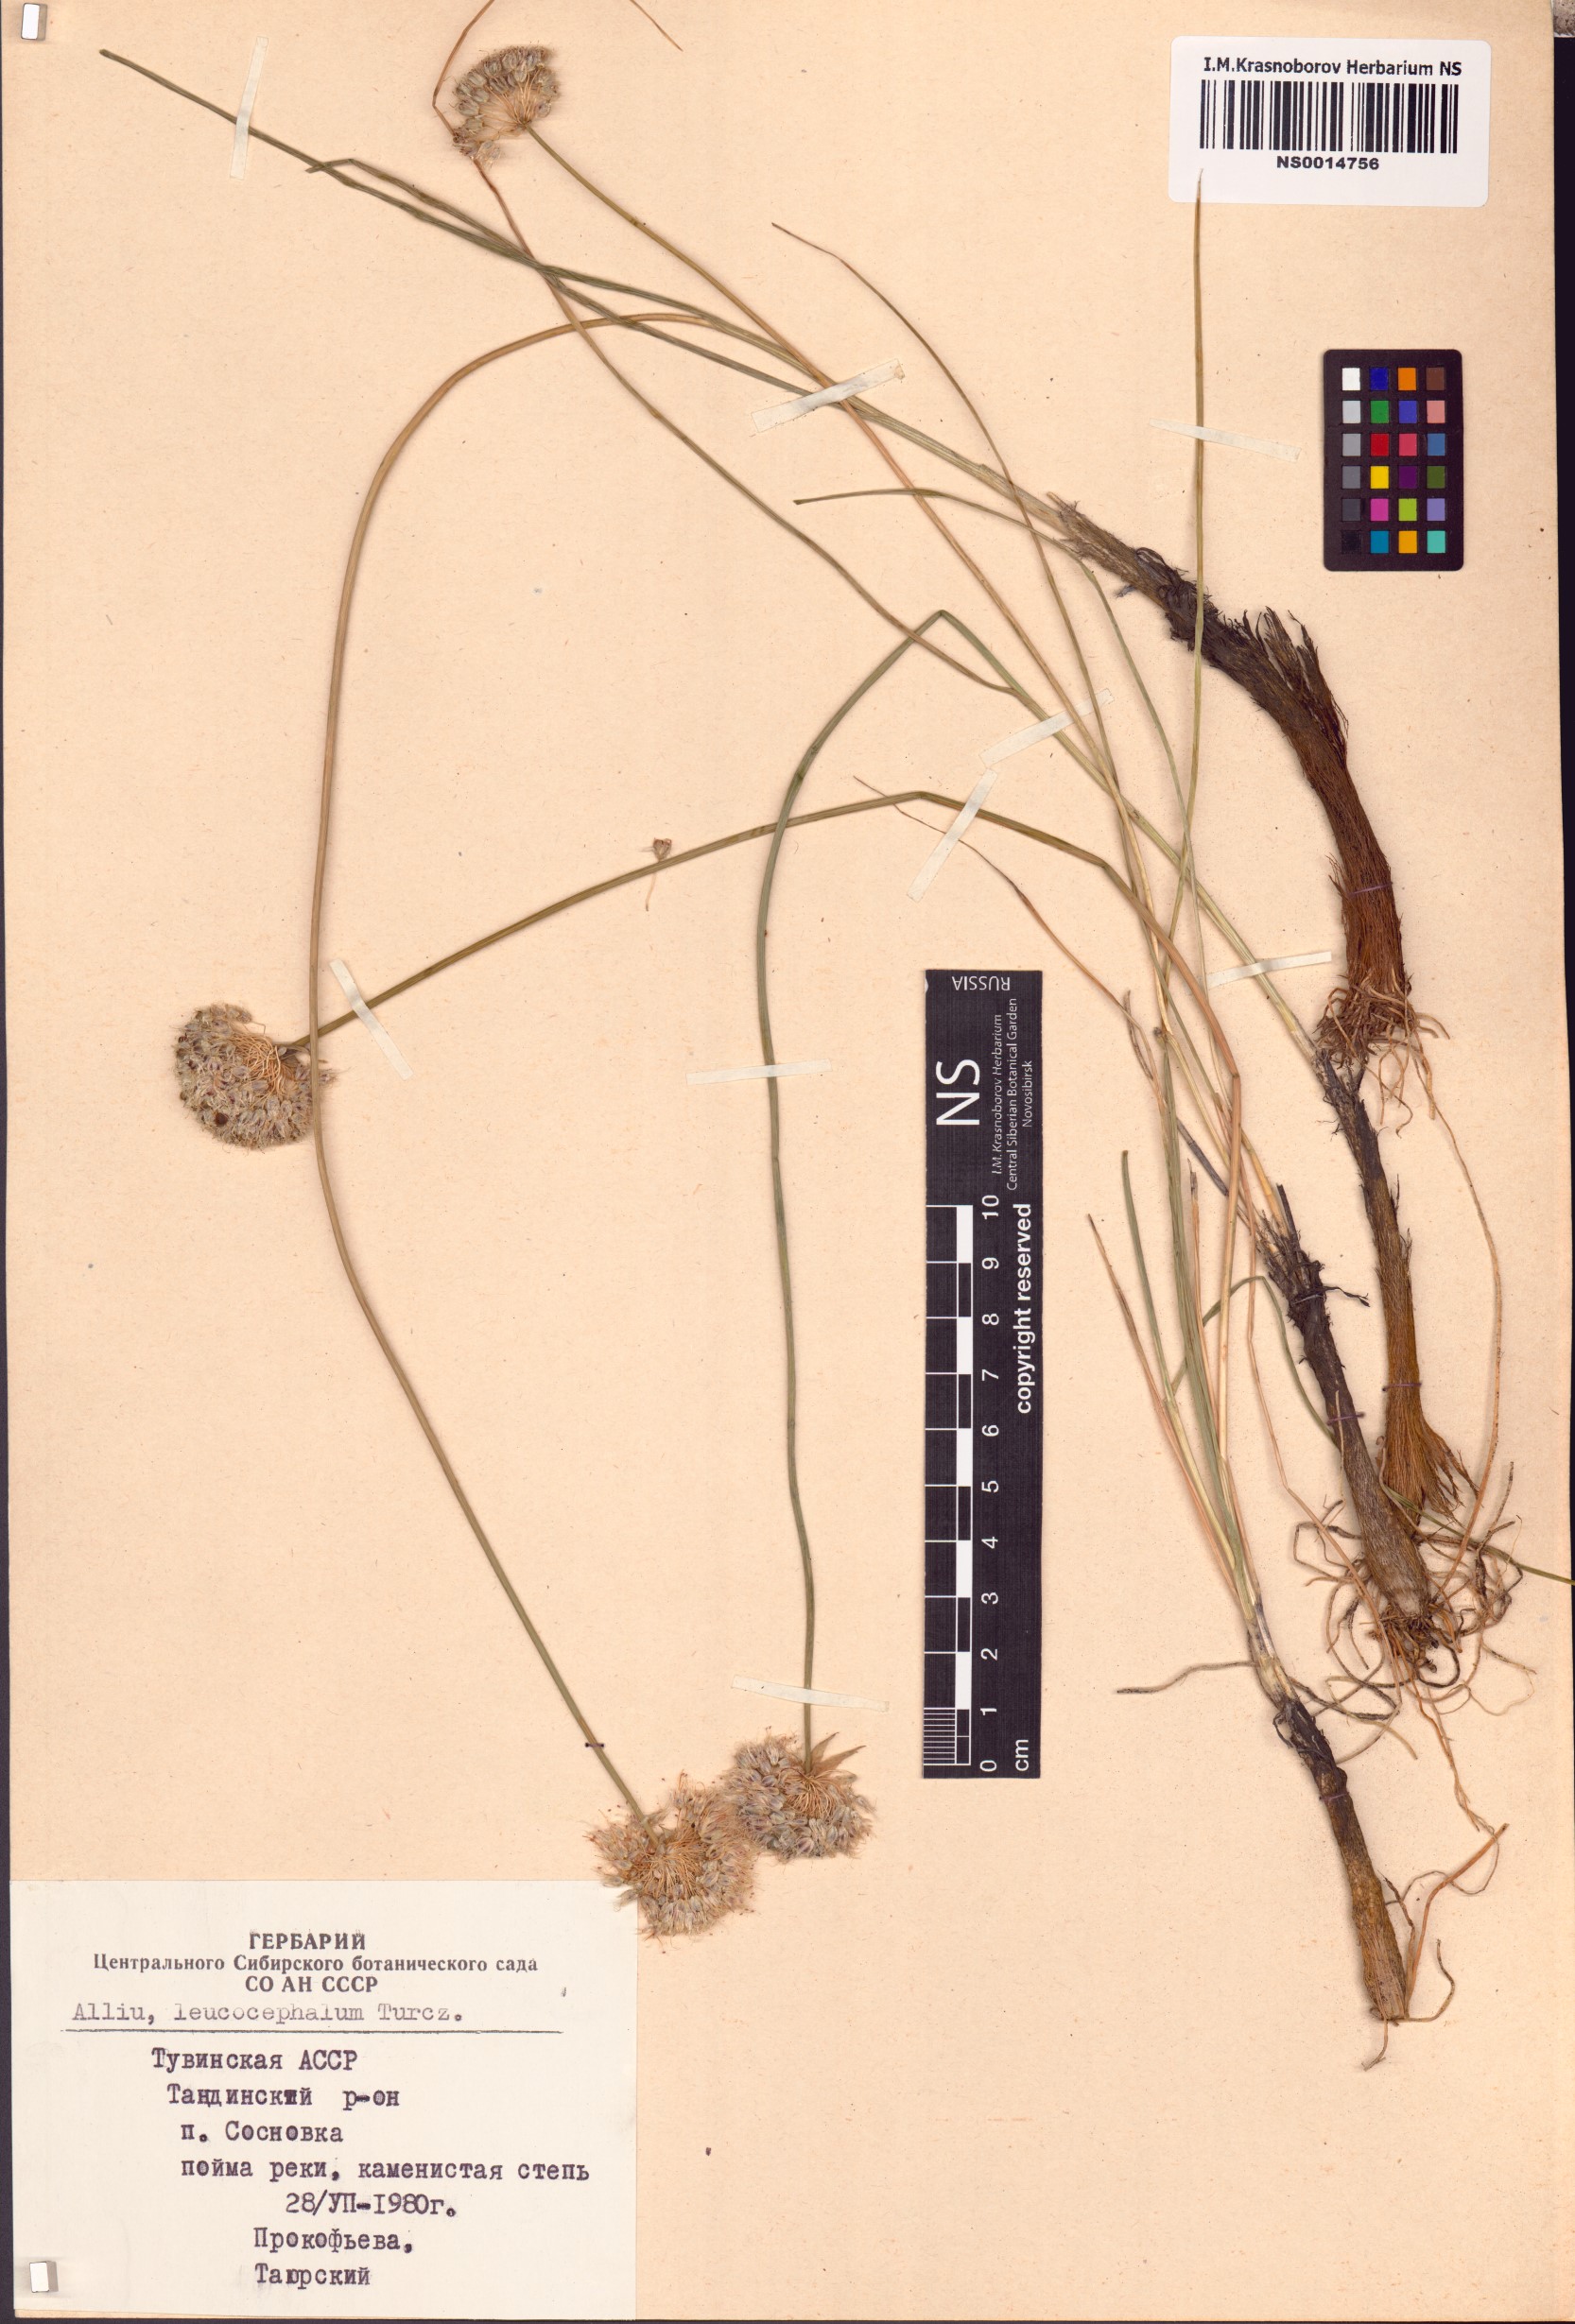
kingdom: Plantae
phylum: Tracheophyta
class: Liliopsida
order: Asparagales
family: Amaryllidaceae
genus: Allium
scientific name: Allium leucocephalum
